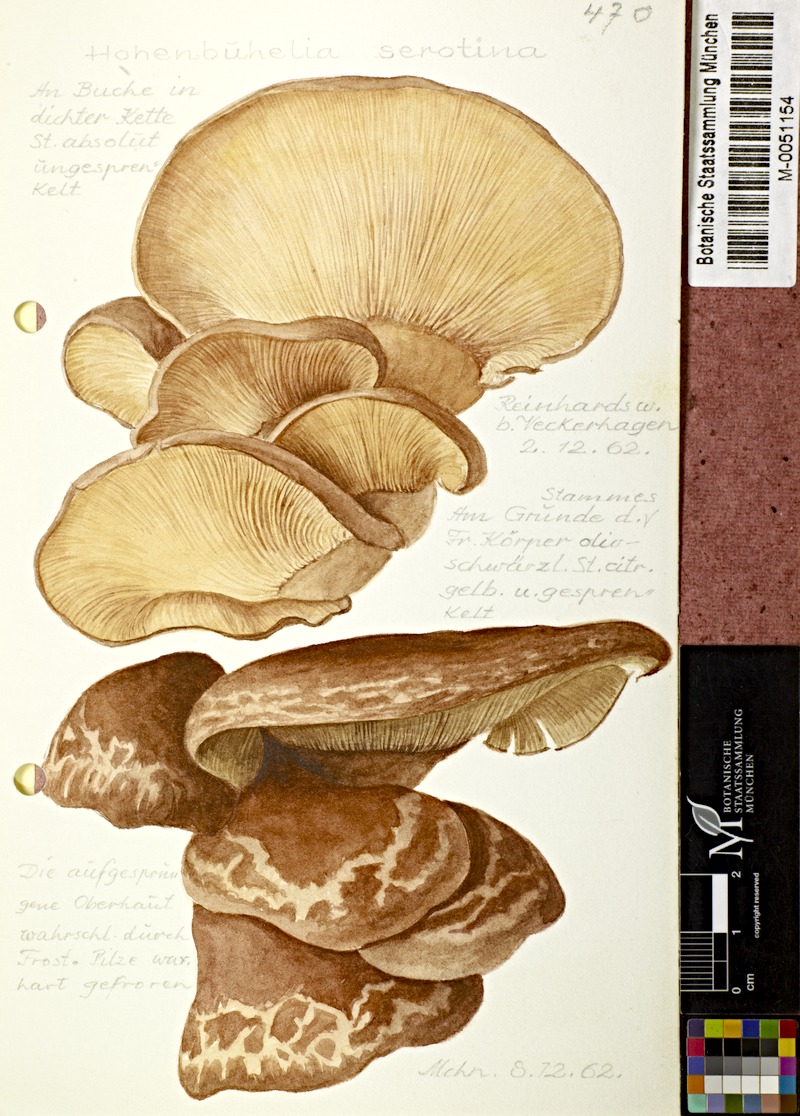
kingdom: Fungi
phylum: Basidiomycota
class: Agaricomycetes
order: Agaricales
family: Sarcomyxaceae
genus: Sarcomyxa
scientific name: Sarcomyxa serotina
